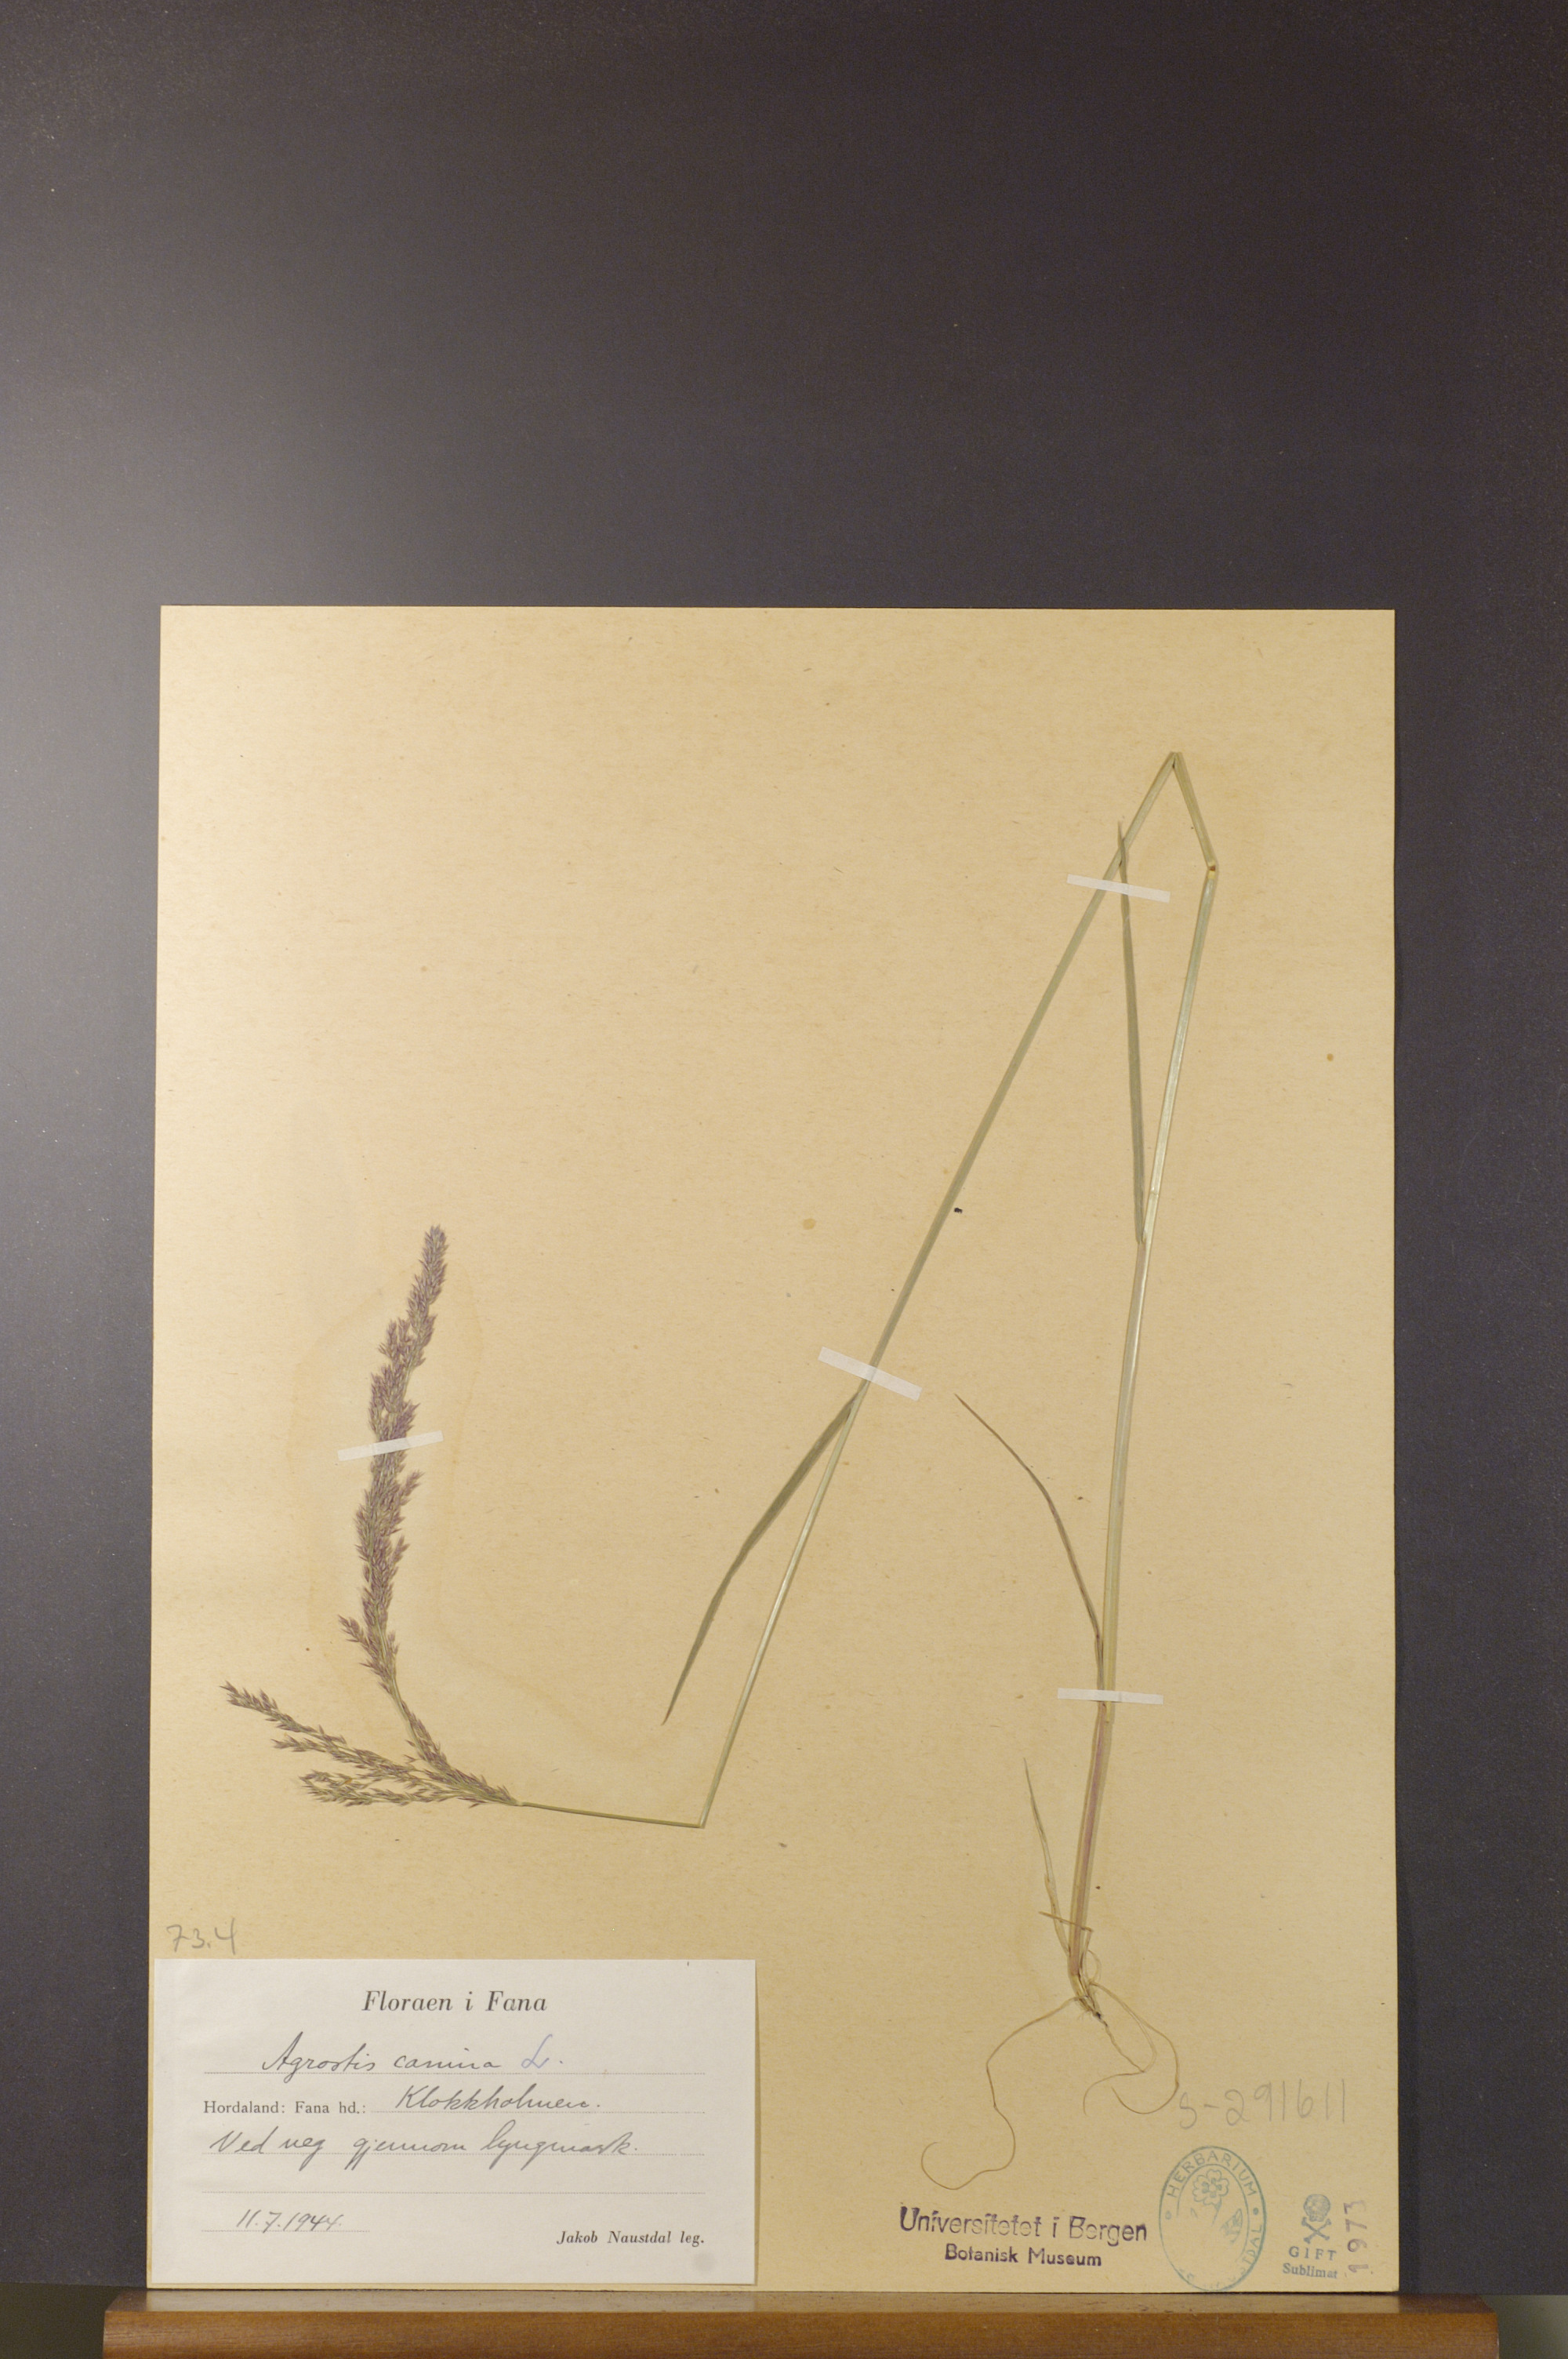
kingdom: Plantae
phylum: Tracheophyta
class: Liliopsida
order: Poales
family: Poaceae
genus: Agrostis
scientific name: Agrostis canina
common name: Velvet bent
